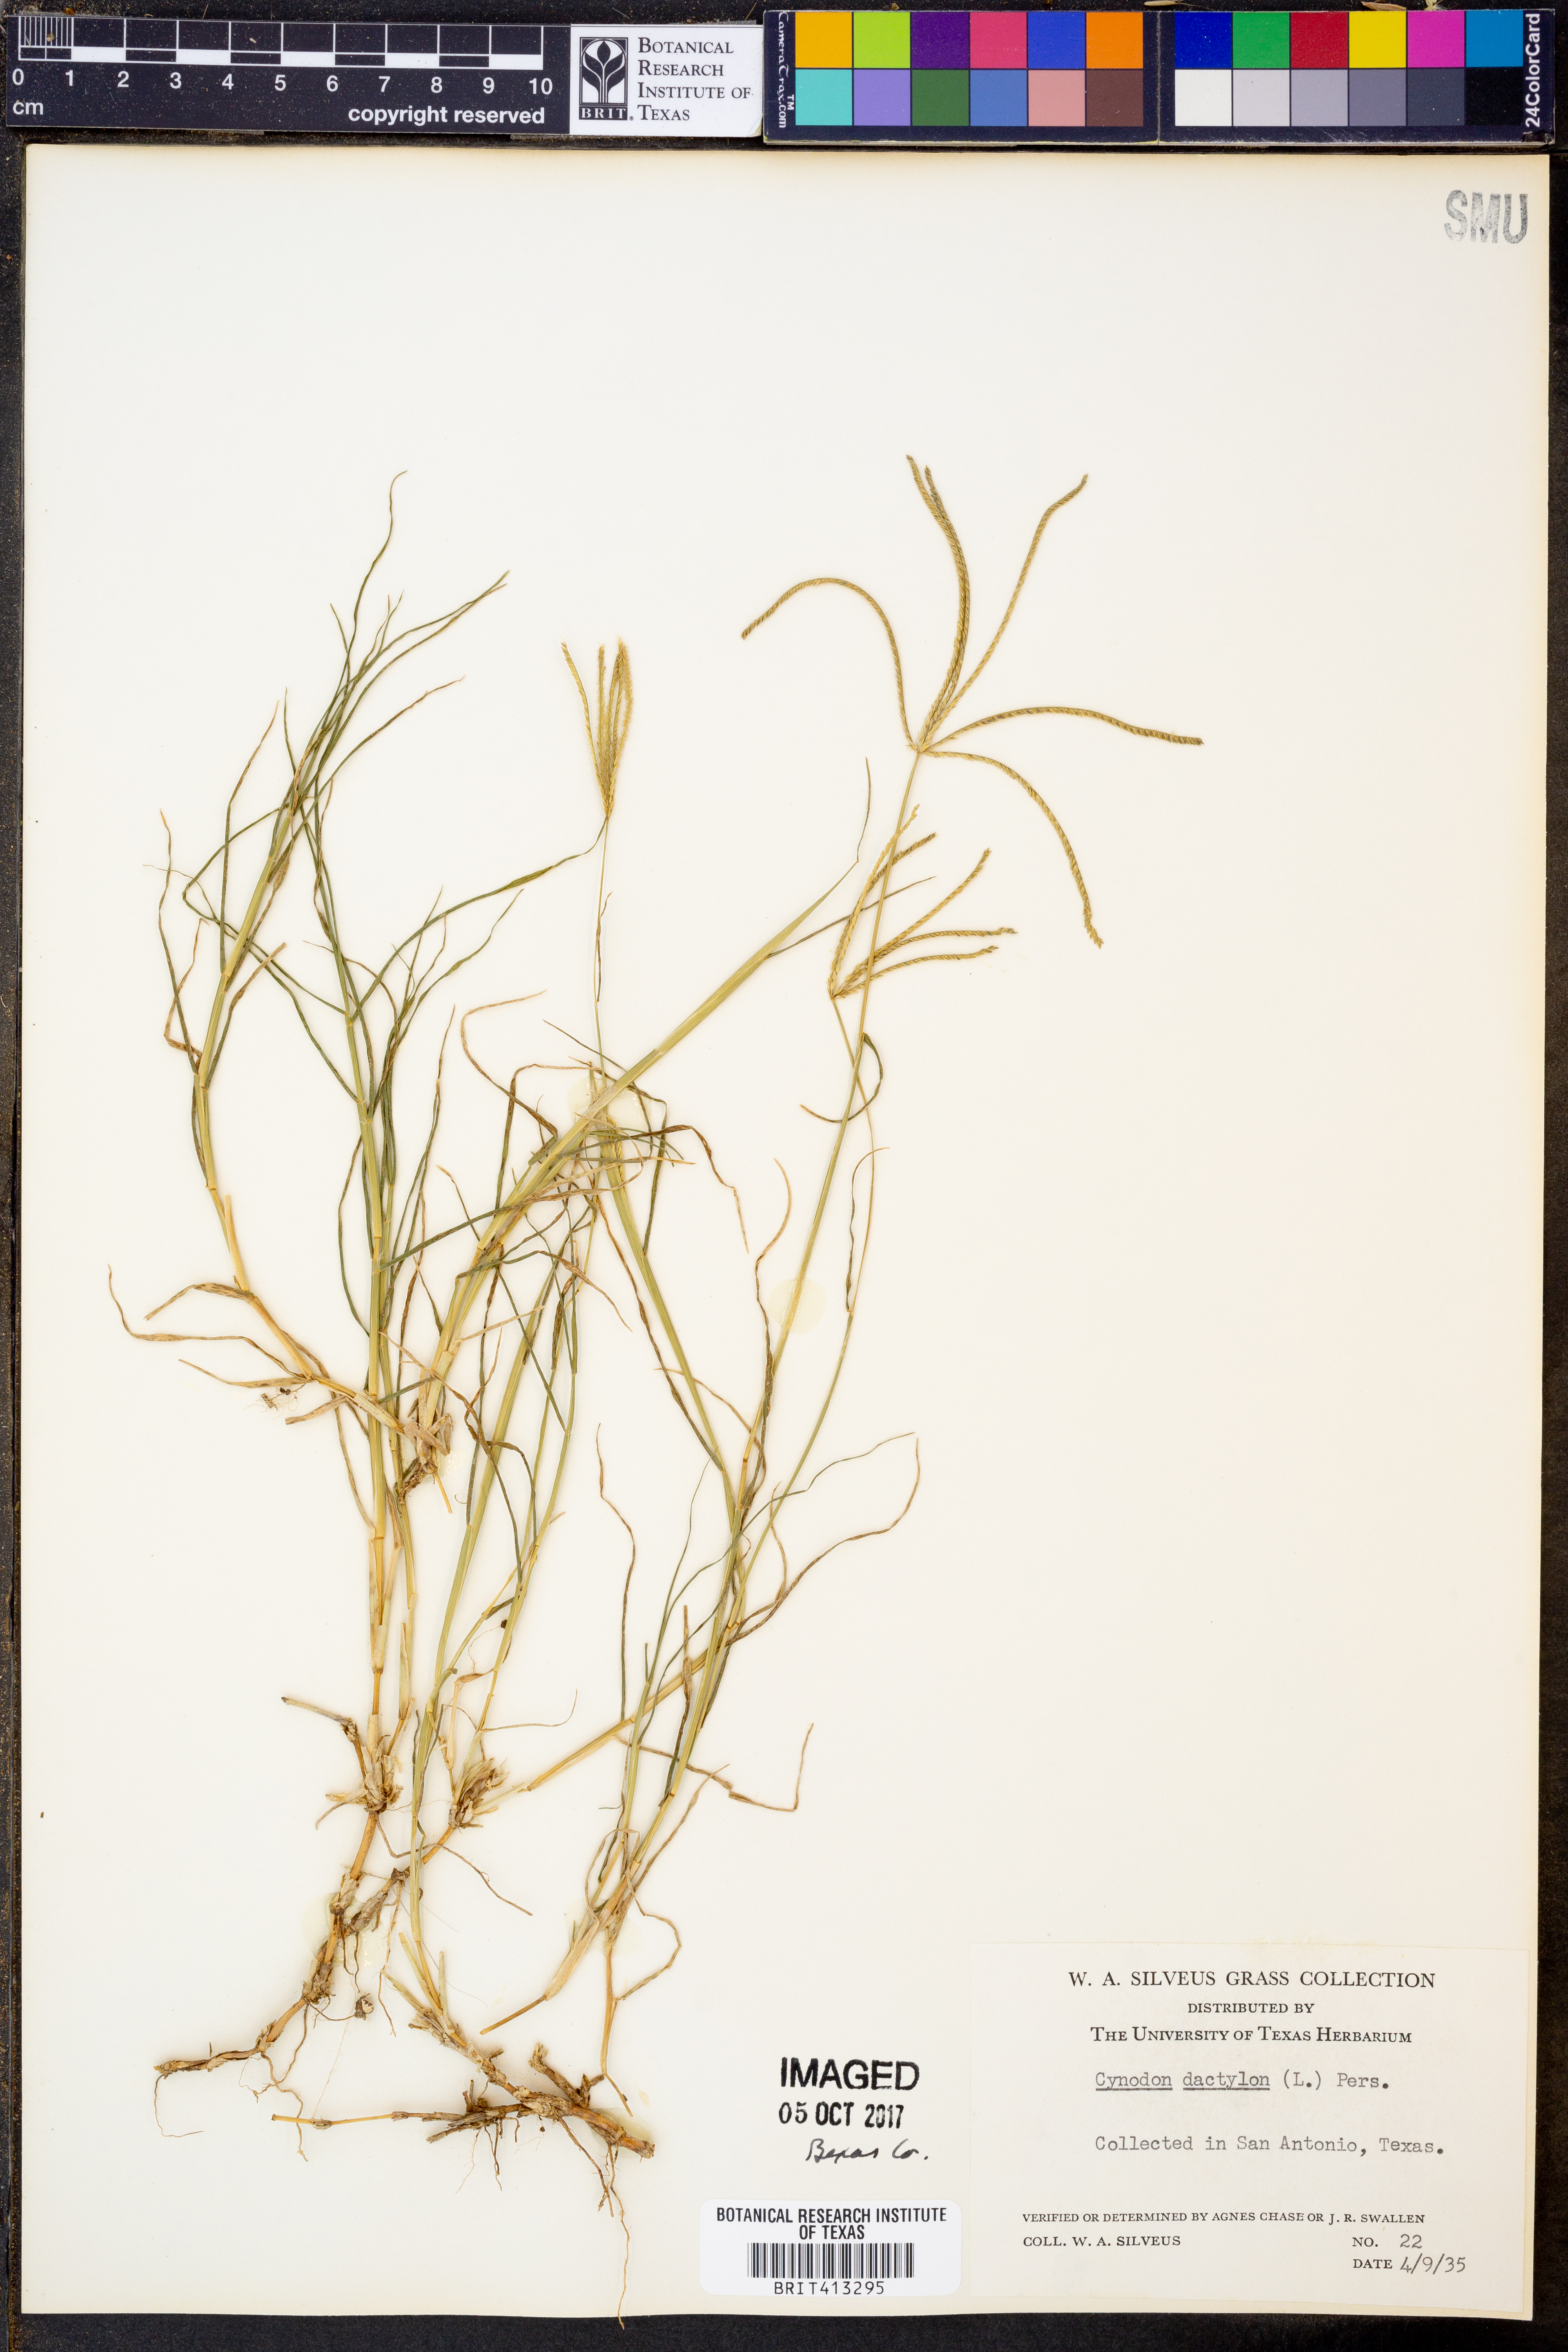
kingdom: Plantae
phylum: Tracheophyta
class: Liliopsida
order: Poales
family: Poaceae
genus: Cynodon
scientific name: Cynodon dactylon
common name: Bermuda grass
